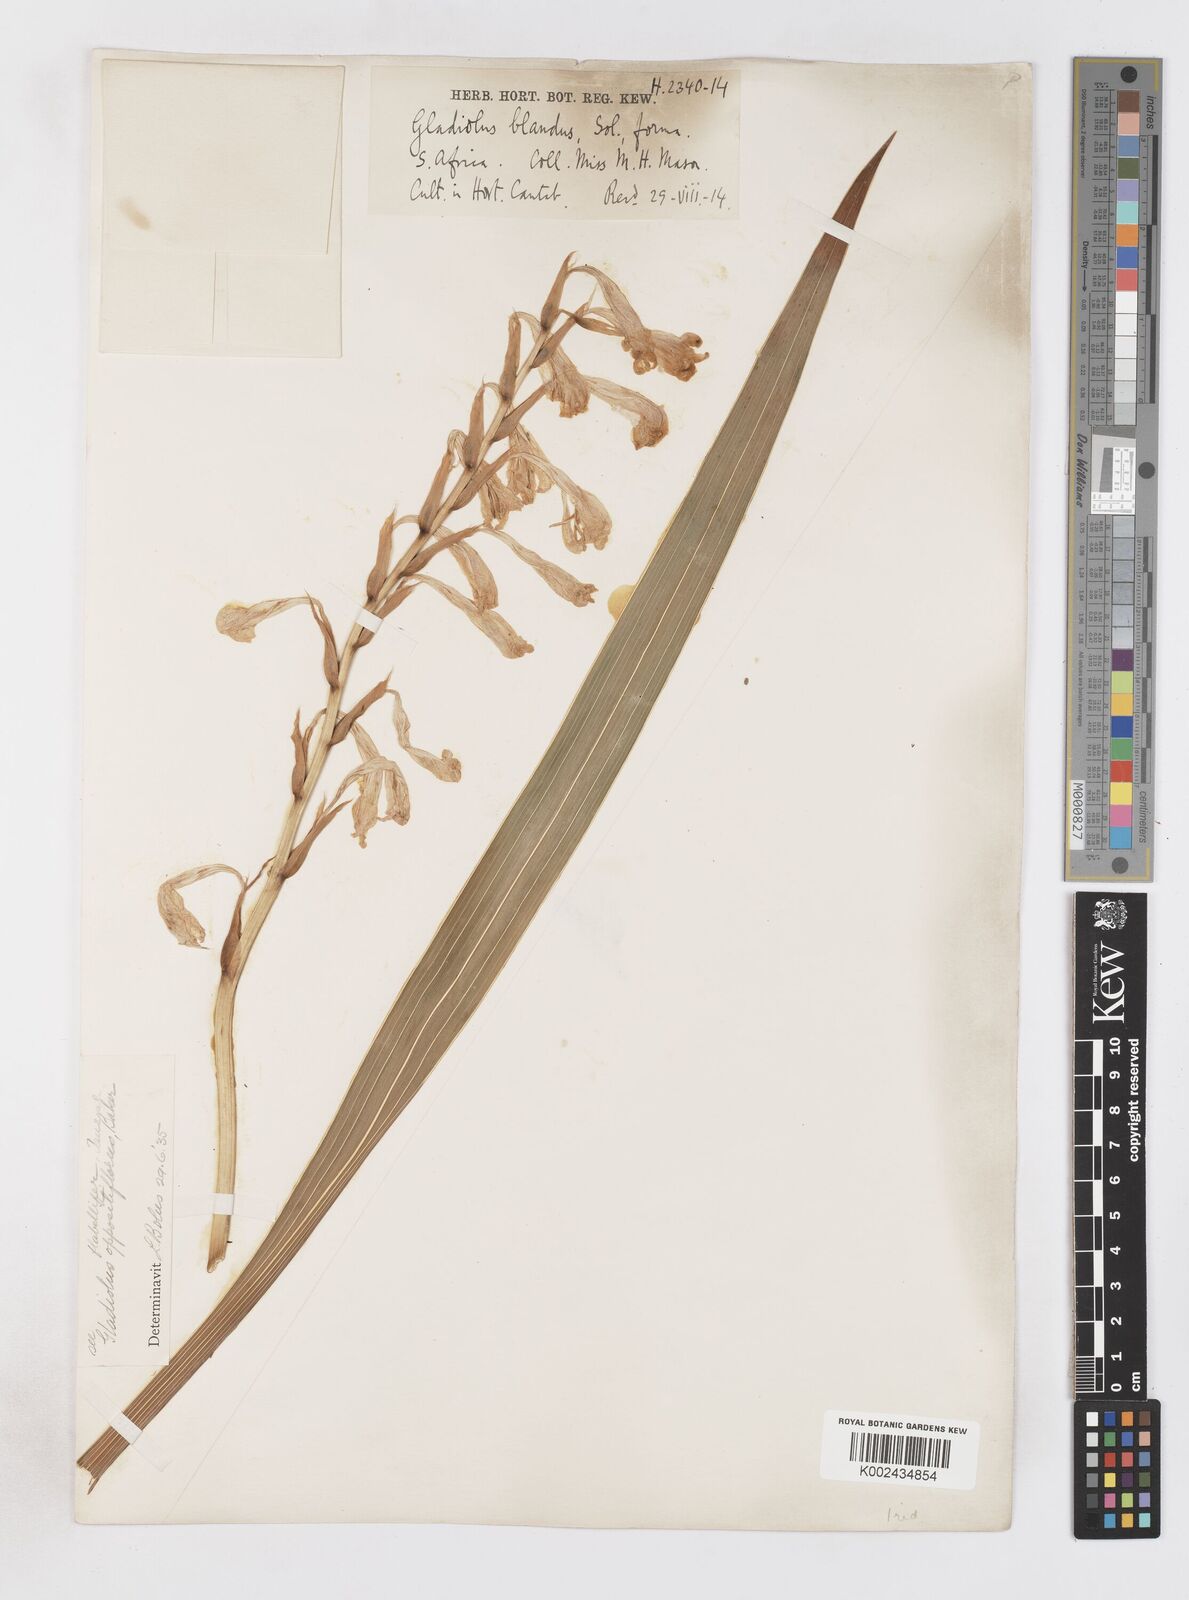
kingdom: Plantae
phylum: Tracheophyta
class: Liliopsida
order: Asparagales
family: Iridaceae
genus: Gladiolus
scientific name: Gladiolus oppositiflorus
